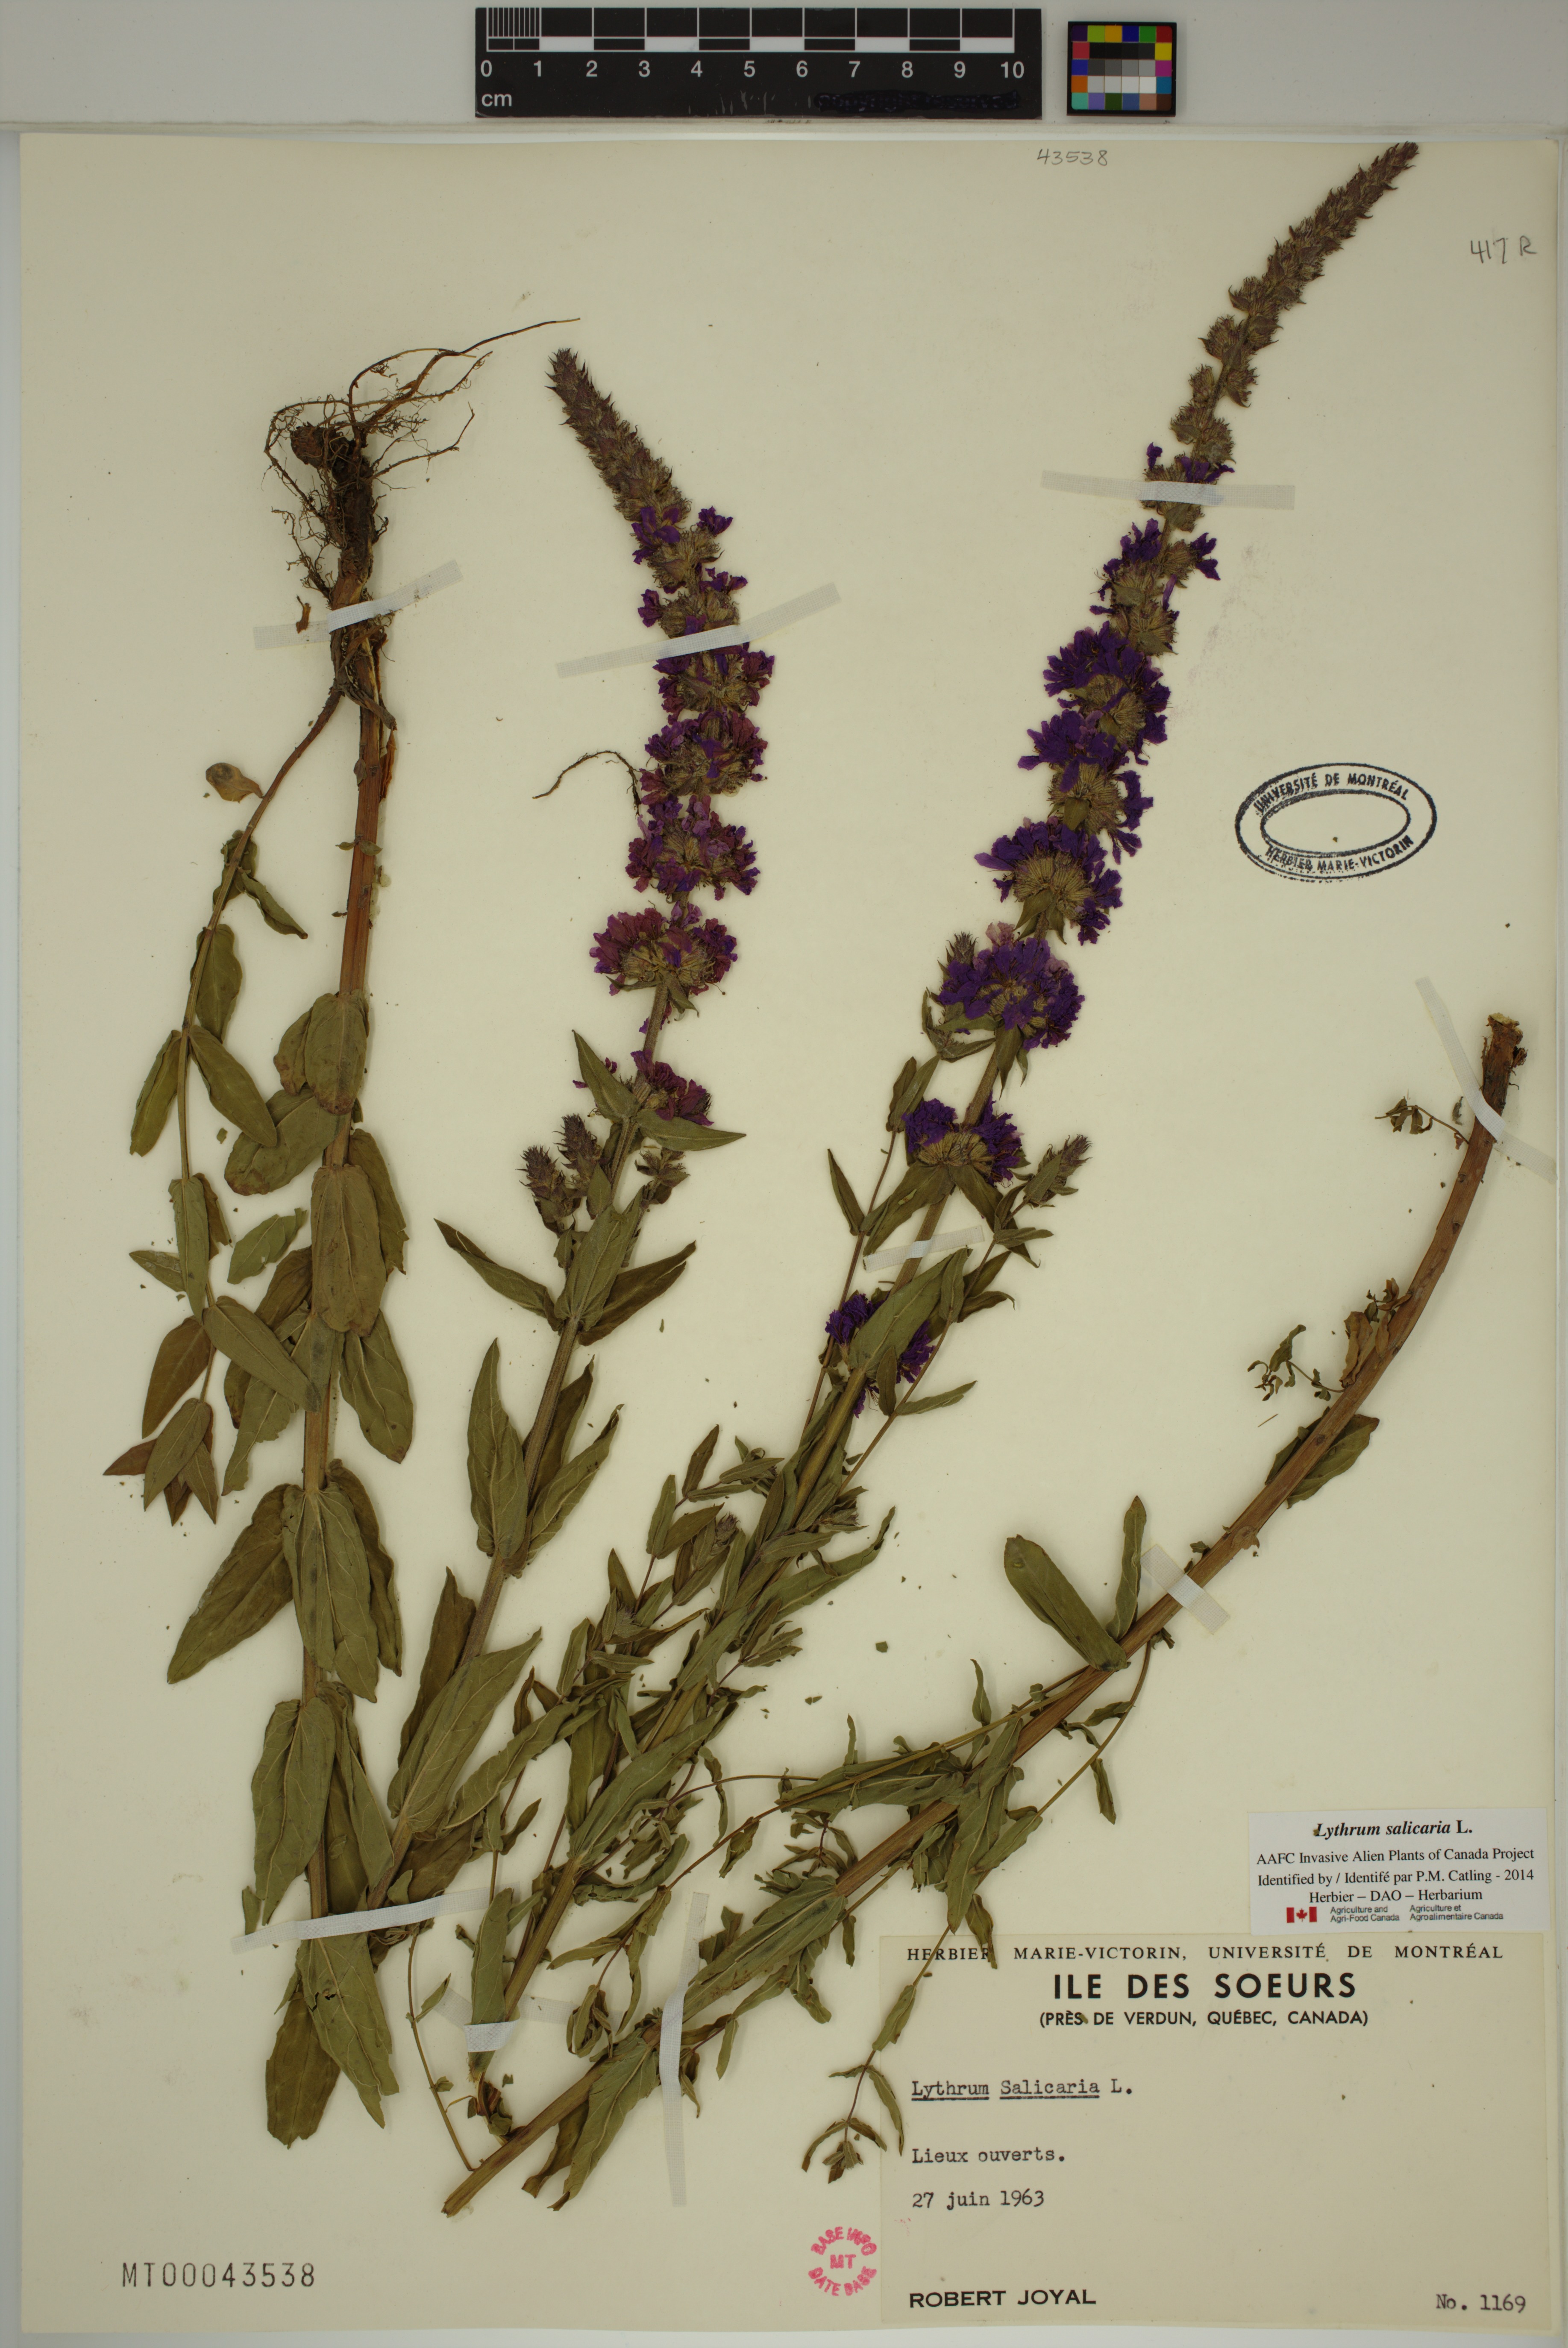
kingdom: Plantae
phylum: Tracheophyta
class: Magnoliopsida
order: Myrtales
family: Lythraceae
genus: Lythrum
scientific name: Lythrum salicaria
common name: Purple loosestrife
